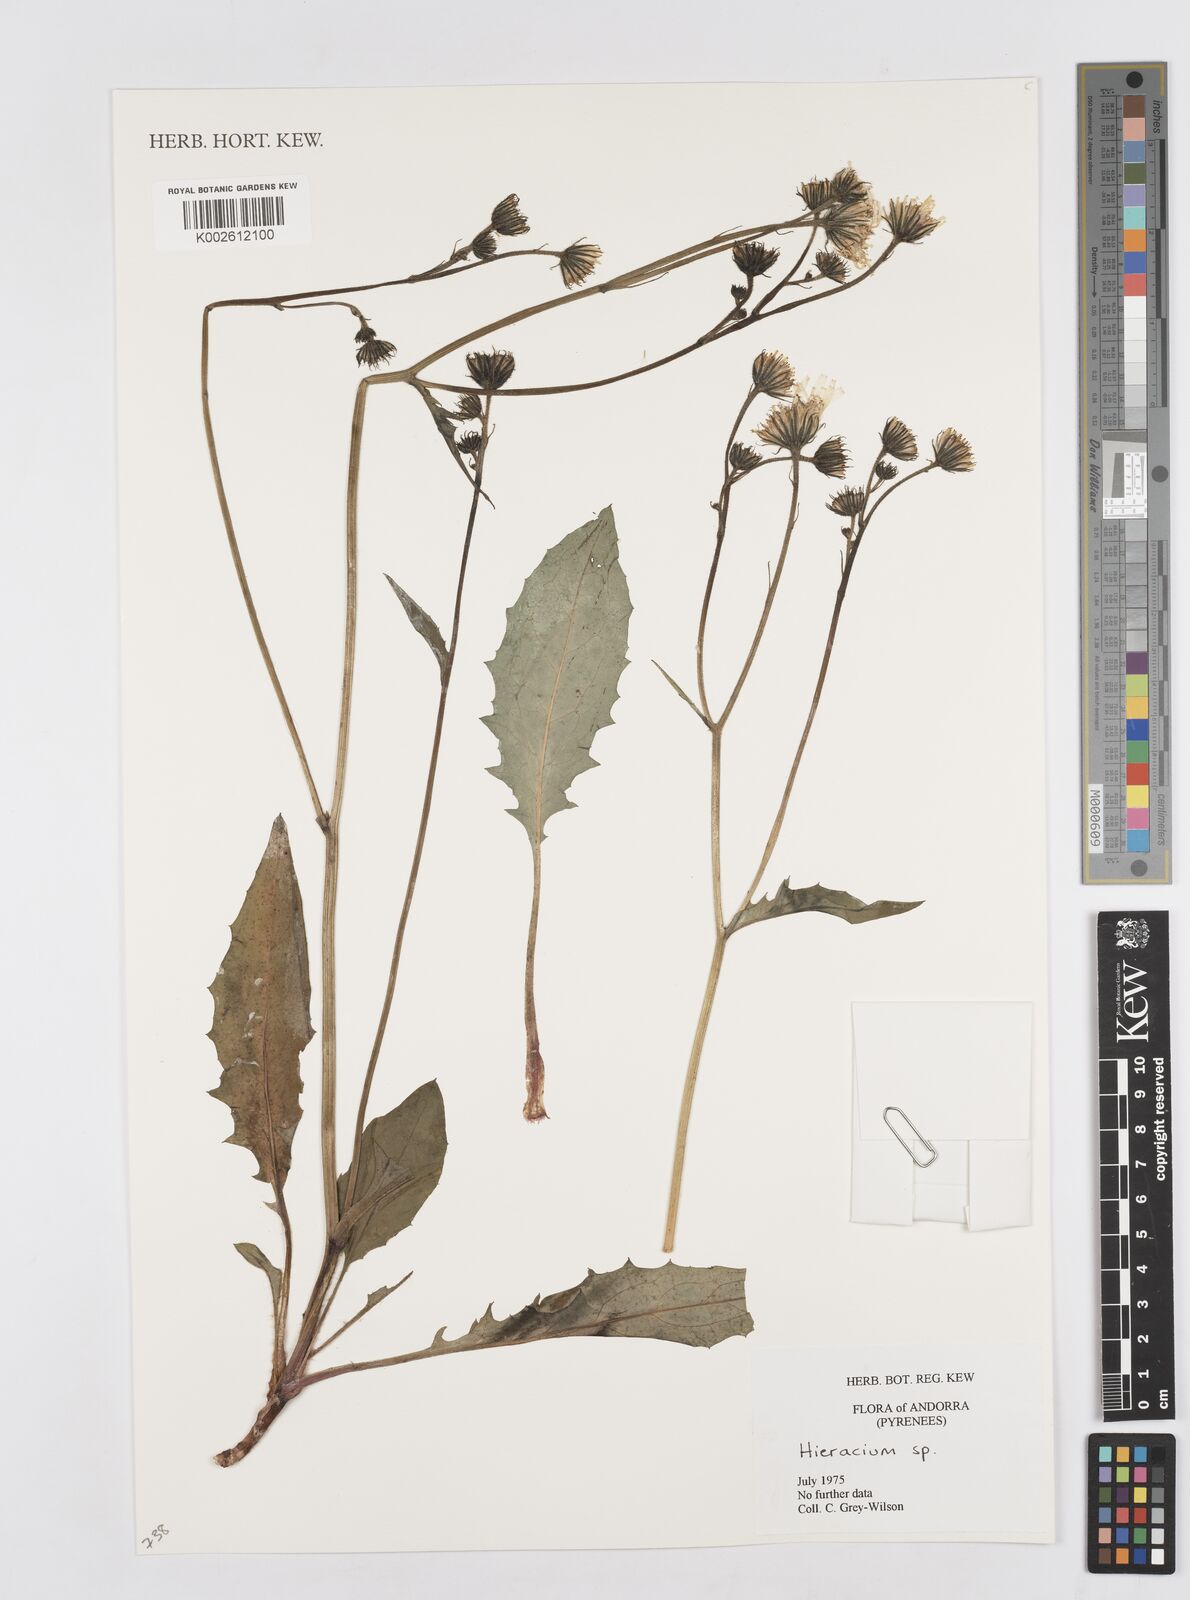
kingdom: Plantae
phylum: Tracheophyta
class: Magnoliopsida
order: Asterales
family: Asteraceae
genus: Hieracium
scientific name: Hieracium
